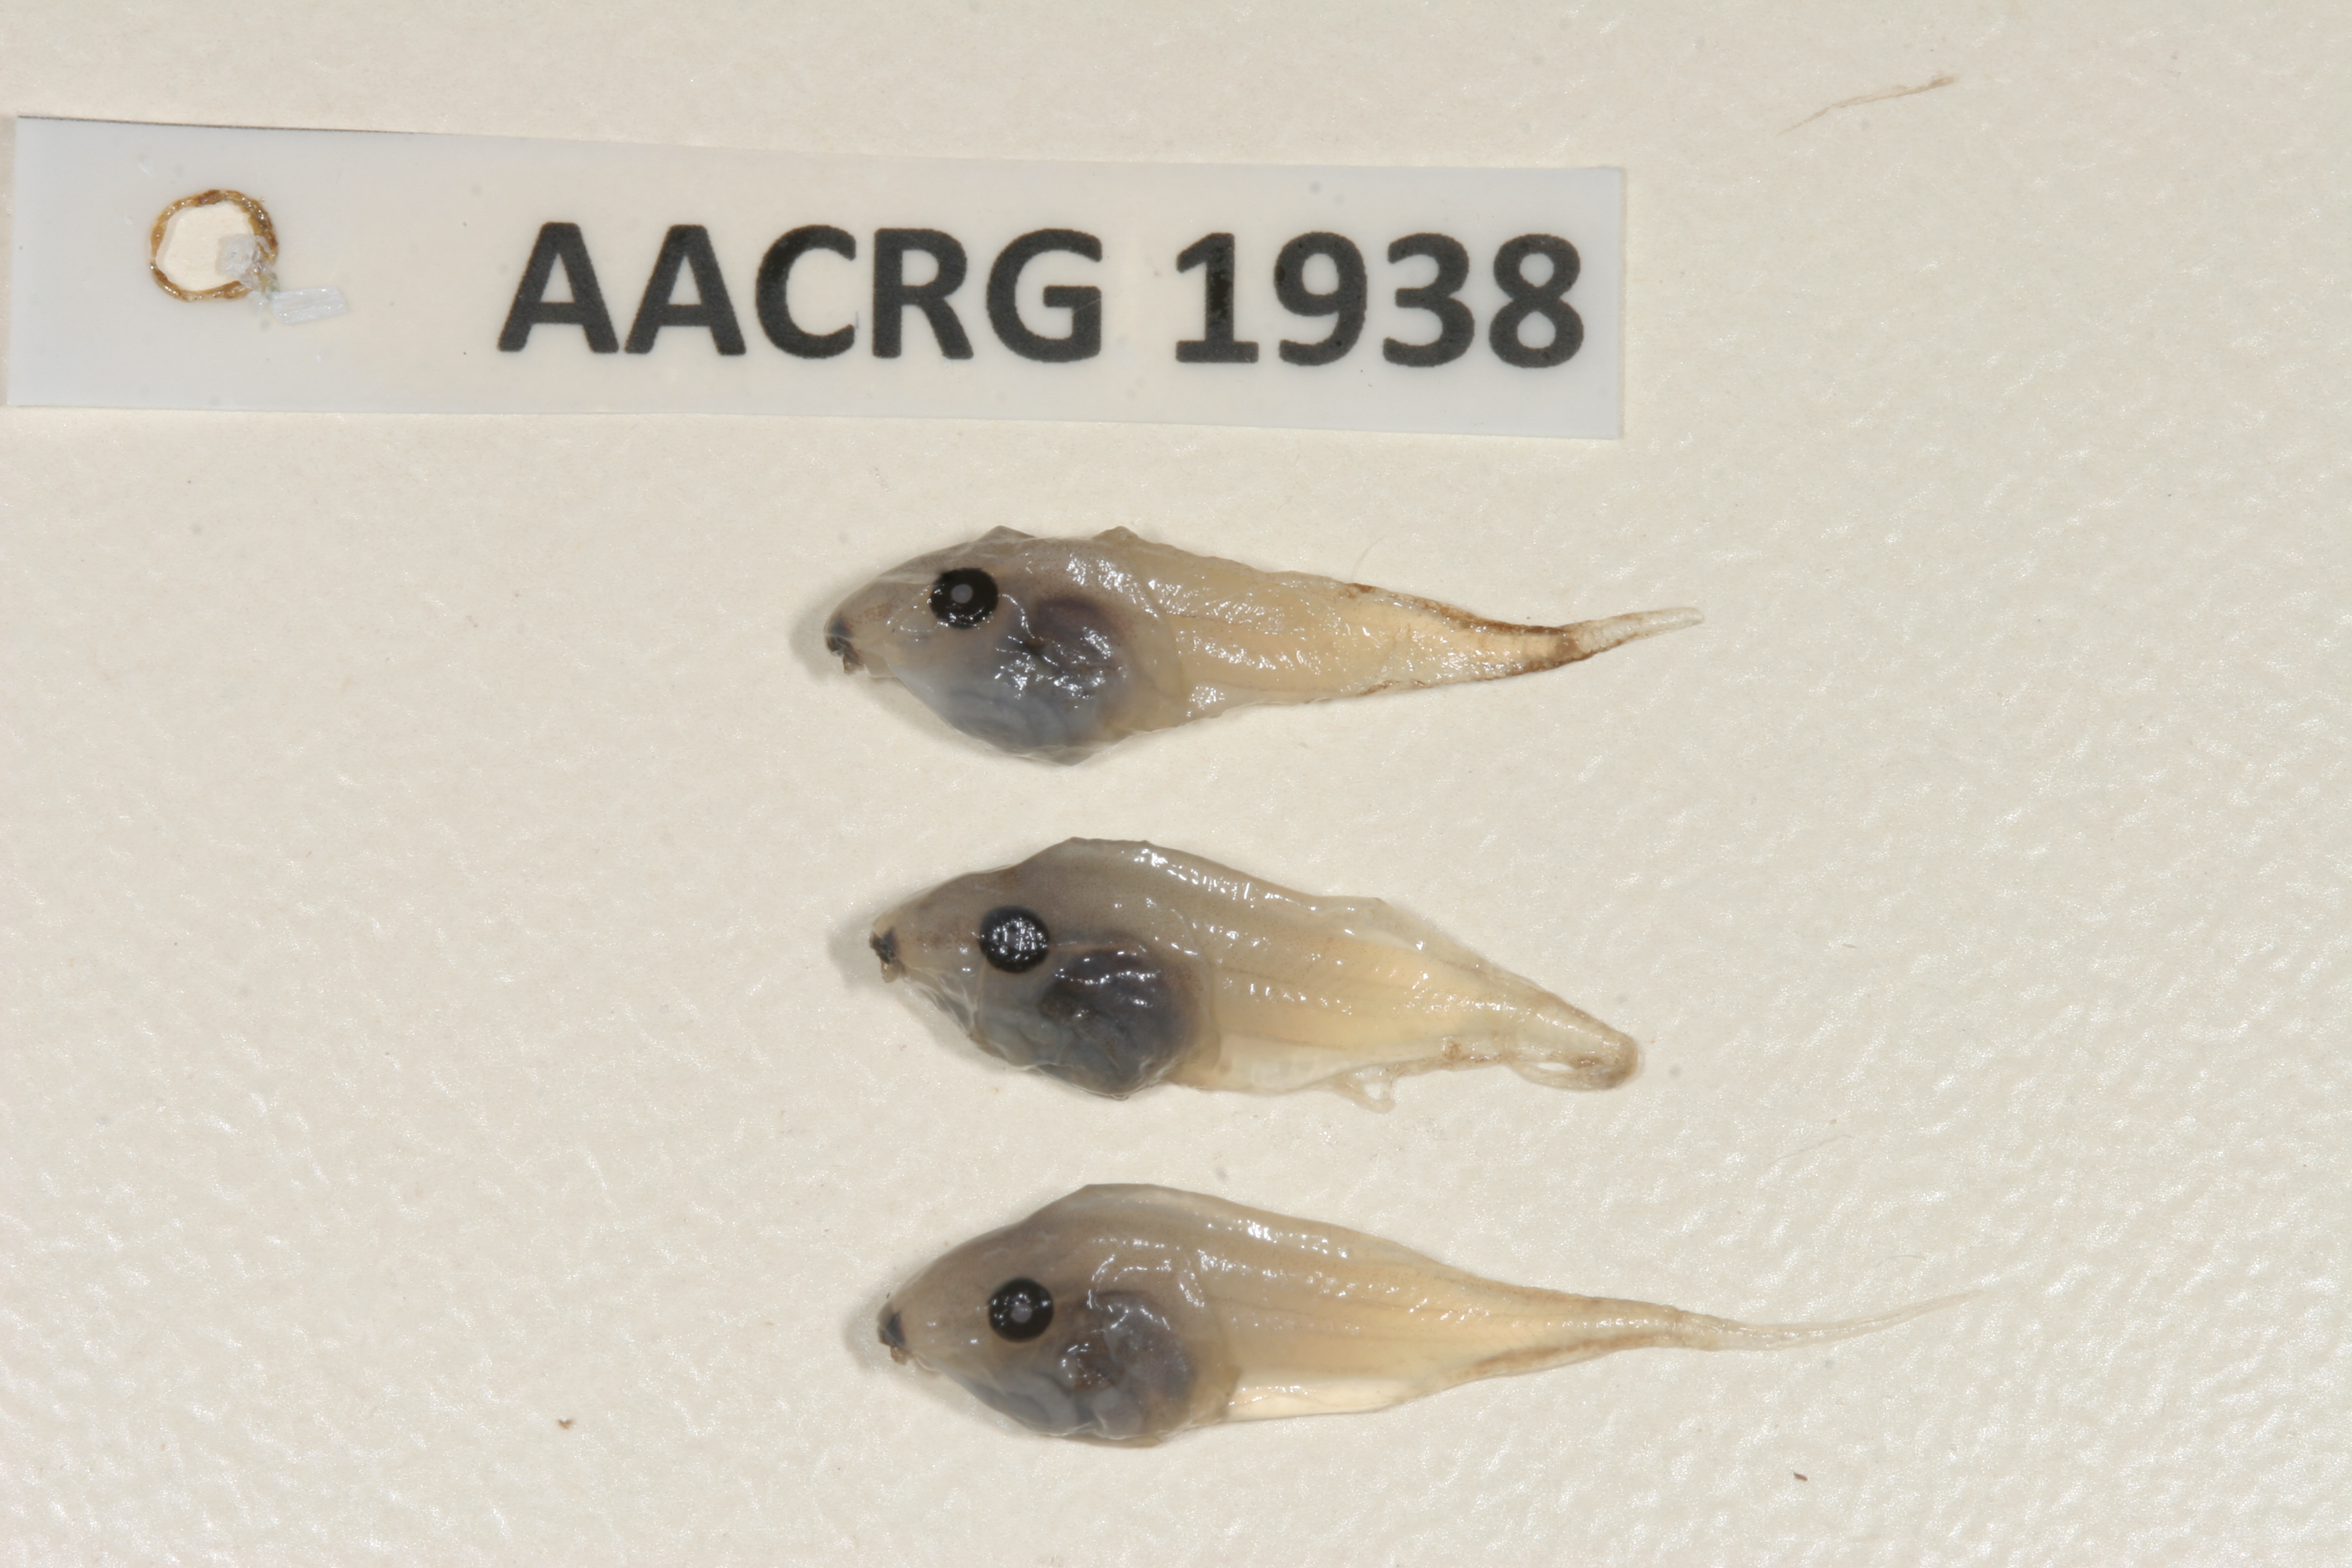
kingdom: Animalia
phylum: Chordata
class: Amphibia
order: Anura
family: Hyperoliidae
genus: Kassina
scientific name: Kassina senegalensis
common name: Senegal land frog
